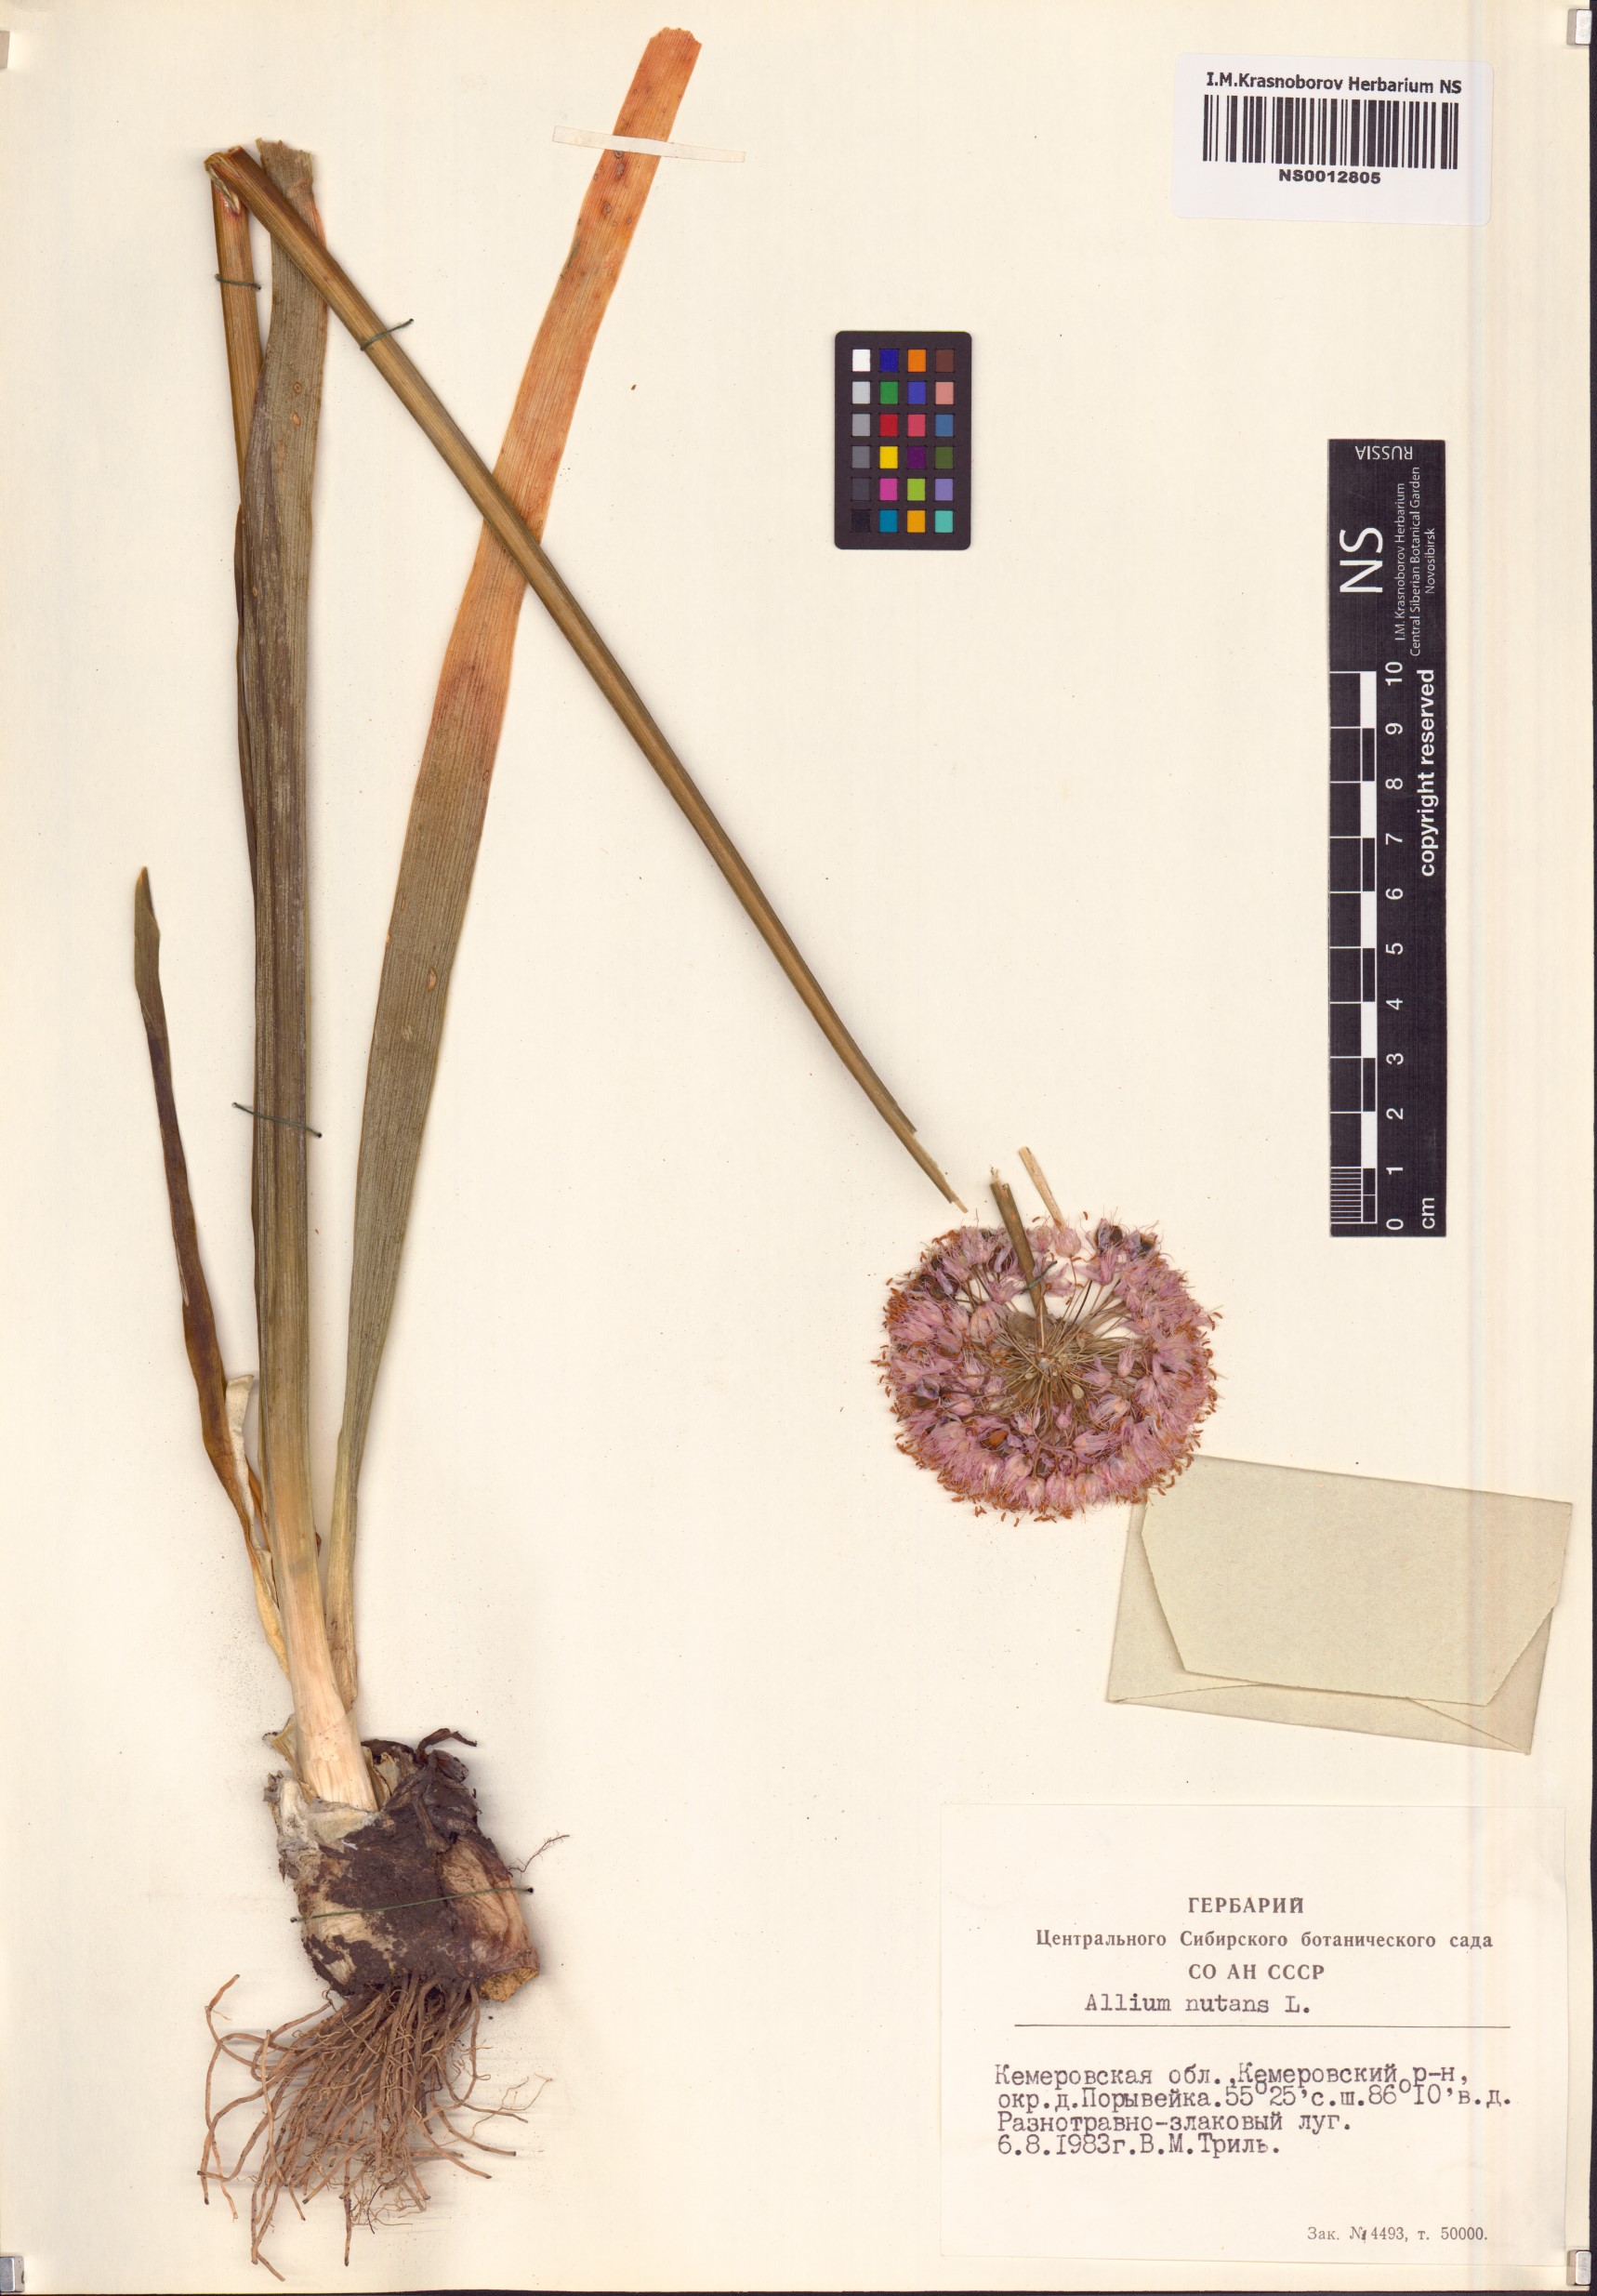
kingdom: Plantae
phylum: Tracheophyta
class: Liliopsida
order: Asparagales
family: Amaryllidaceae
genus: Allium
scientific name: Allium nutans
